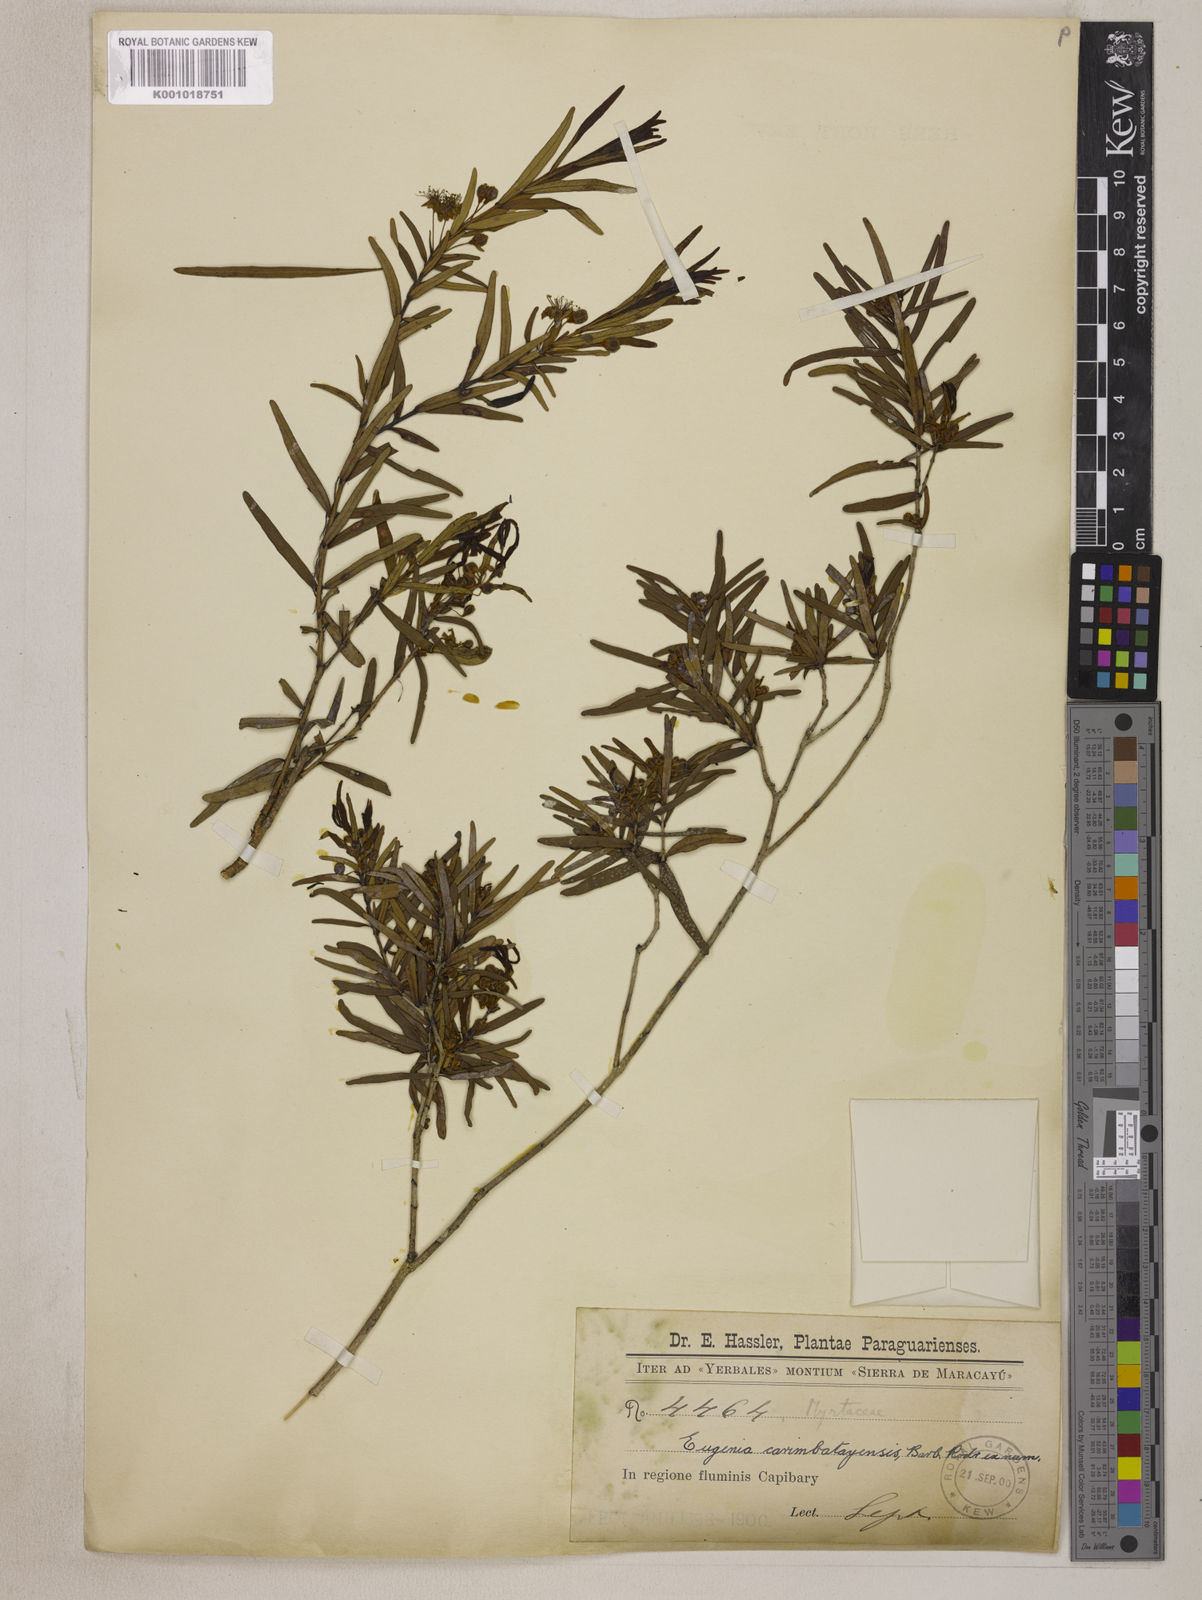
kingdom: Plantae
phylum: Tracheophyta
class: Magnoliopsida
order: Myrtales
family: Myrtaceae
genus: Eugenia
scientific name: Eugenia
